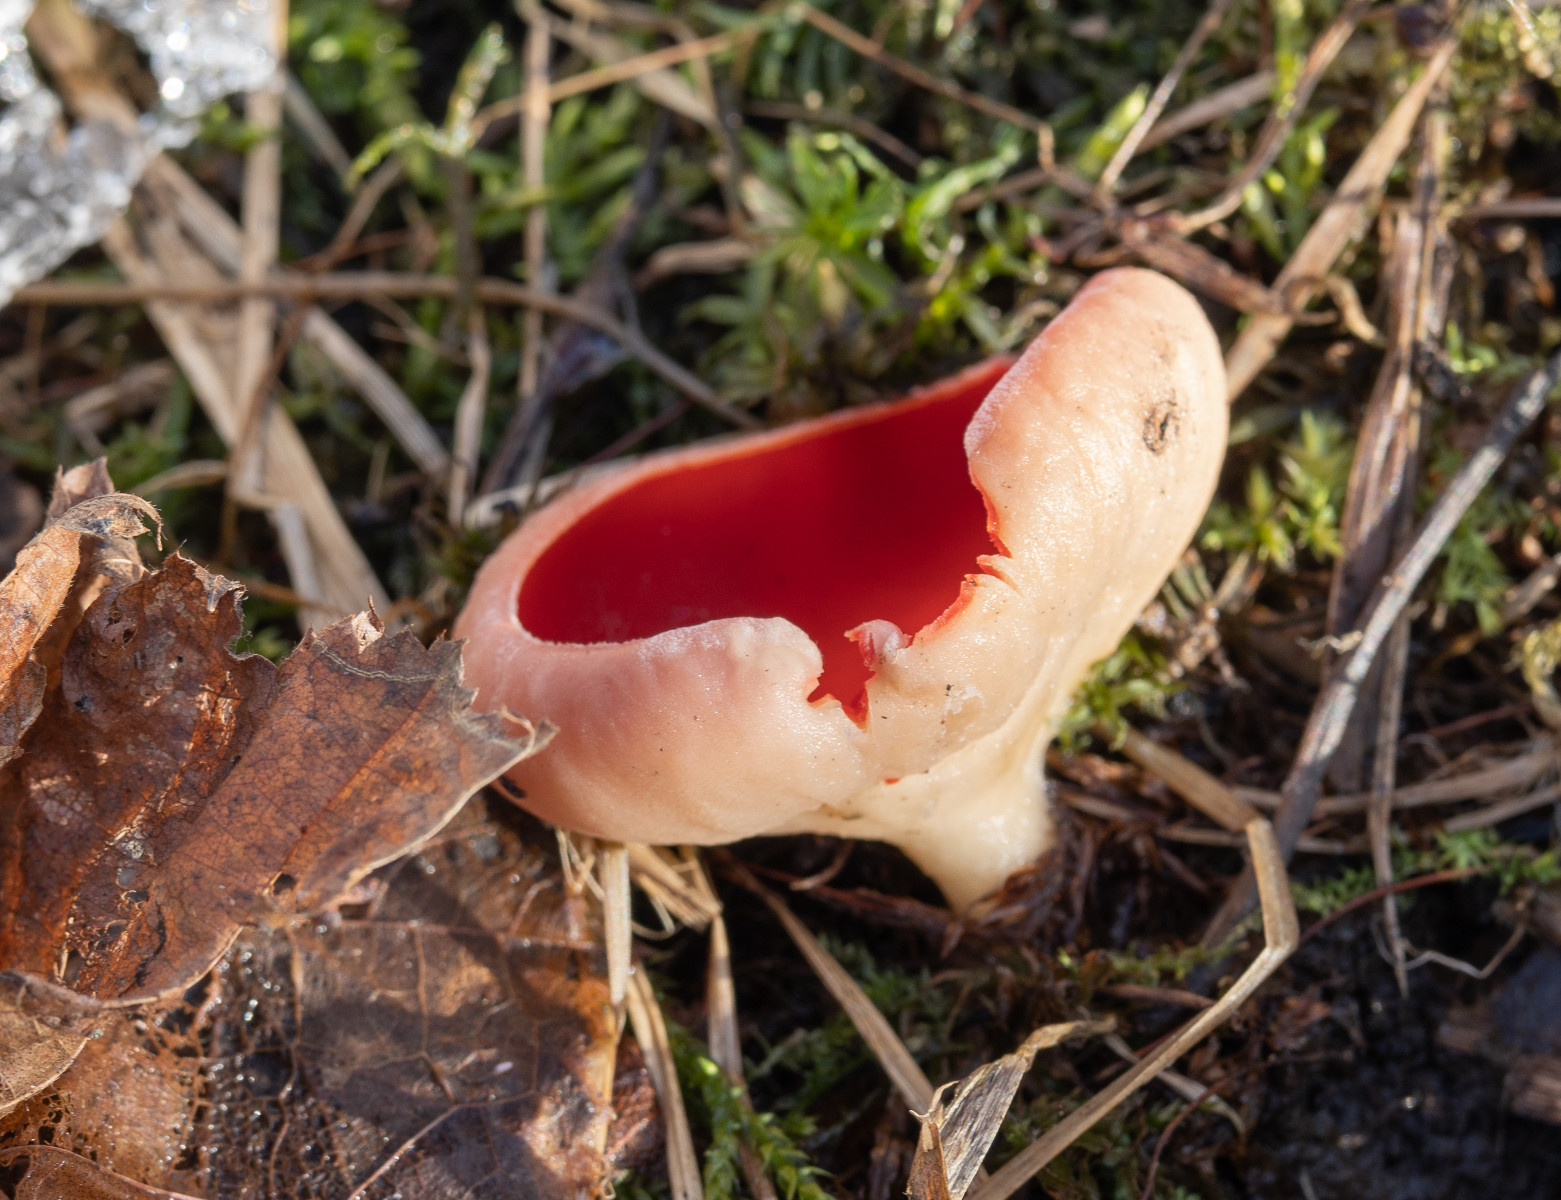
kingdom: Fungi
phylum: Ascomycota
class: Pezizomycetes
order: Pezizales
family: Sarcoscyphaceae
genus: Sarcoscypha
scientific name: Sarcoscypha
